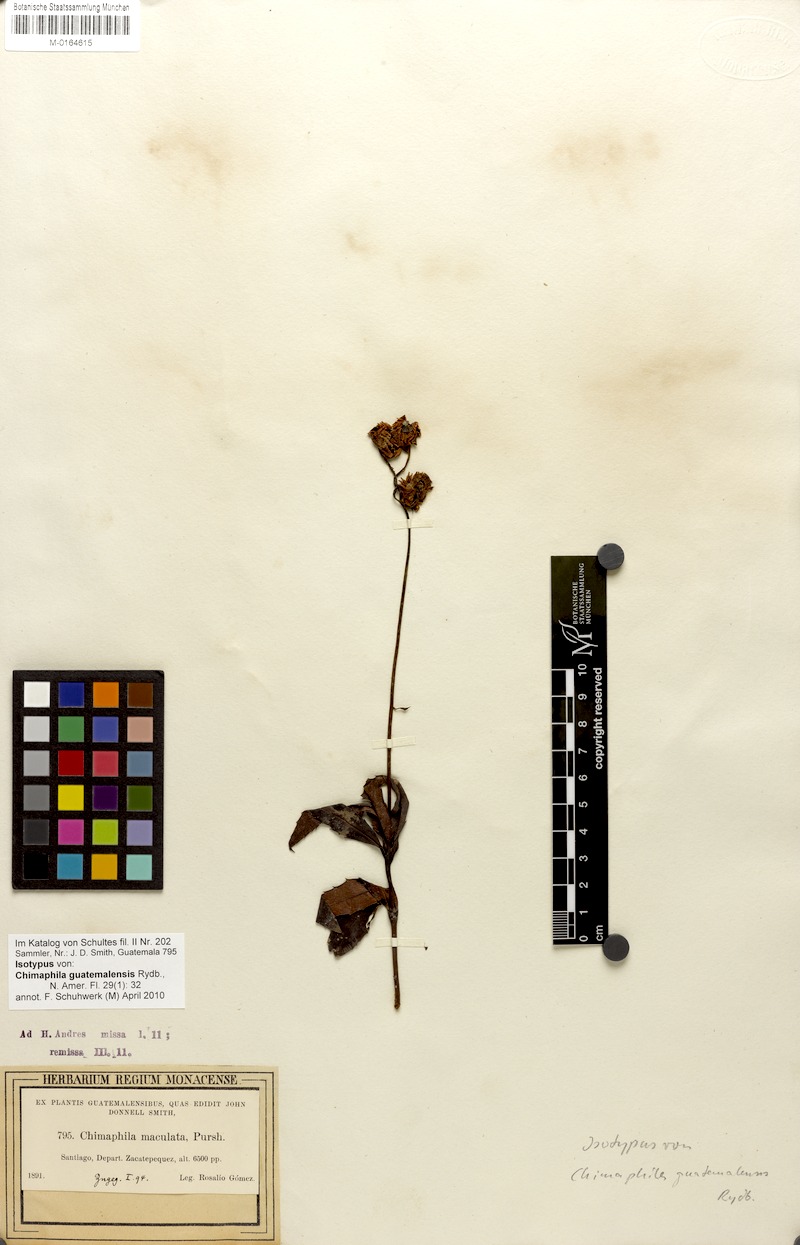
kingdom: Plantae
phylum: Tracheophyta
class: Magnoliopsida
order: Ericales
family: Ericaceae
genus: Chimaphila
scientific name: Chimaphila maculata
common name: Spotted pipsissewa
